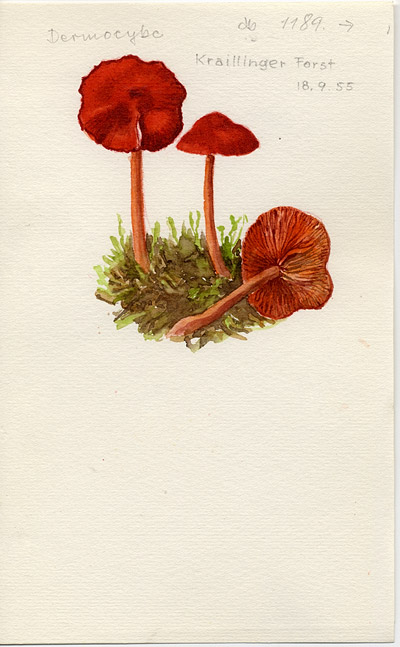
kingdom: Fungi
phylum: Basidiomycota
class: Agaricomycetes
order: Agaricales
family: Cortinariaceae
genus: Cortinarius
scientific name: Cortinarius sanguineus
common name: Bloodred webcap
